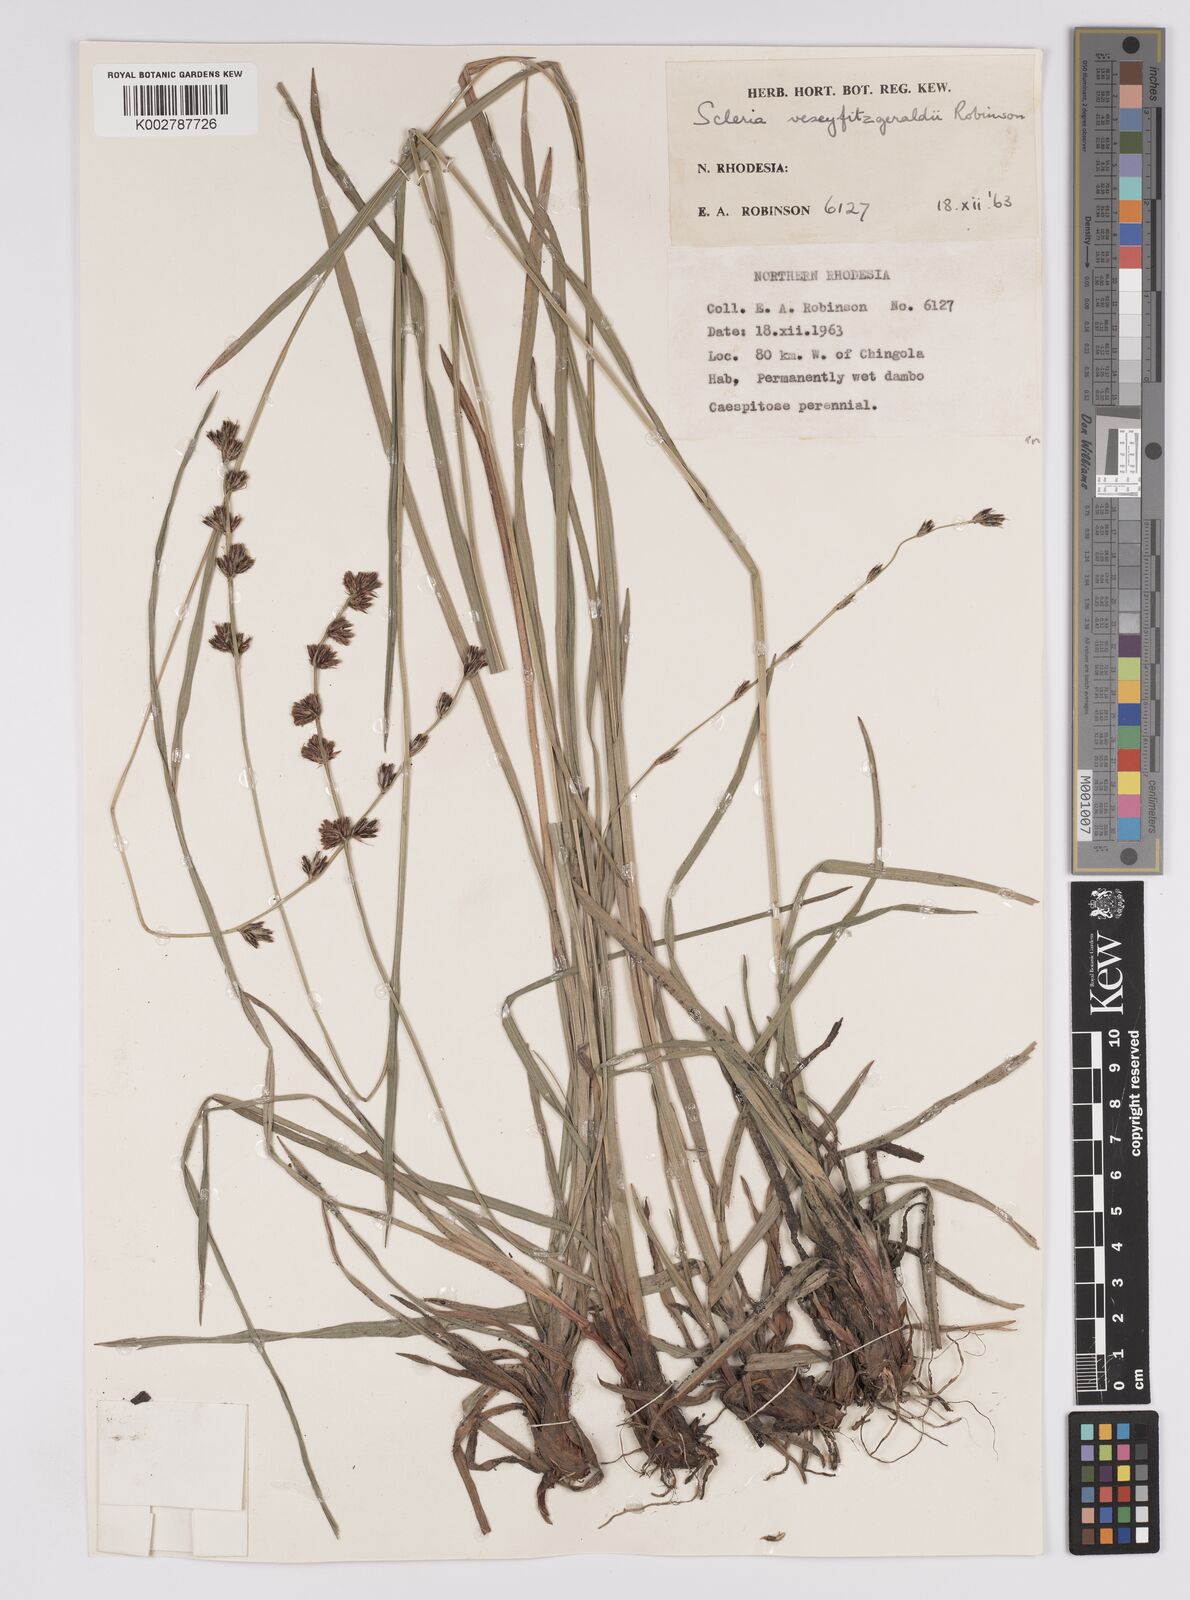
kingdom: Plantae
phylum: Tracheophyta
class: Liliopsida
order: Poales
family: Cyperaceae
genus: Scleria
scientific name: Scleria veseyfitzgeraldii
